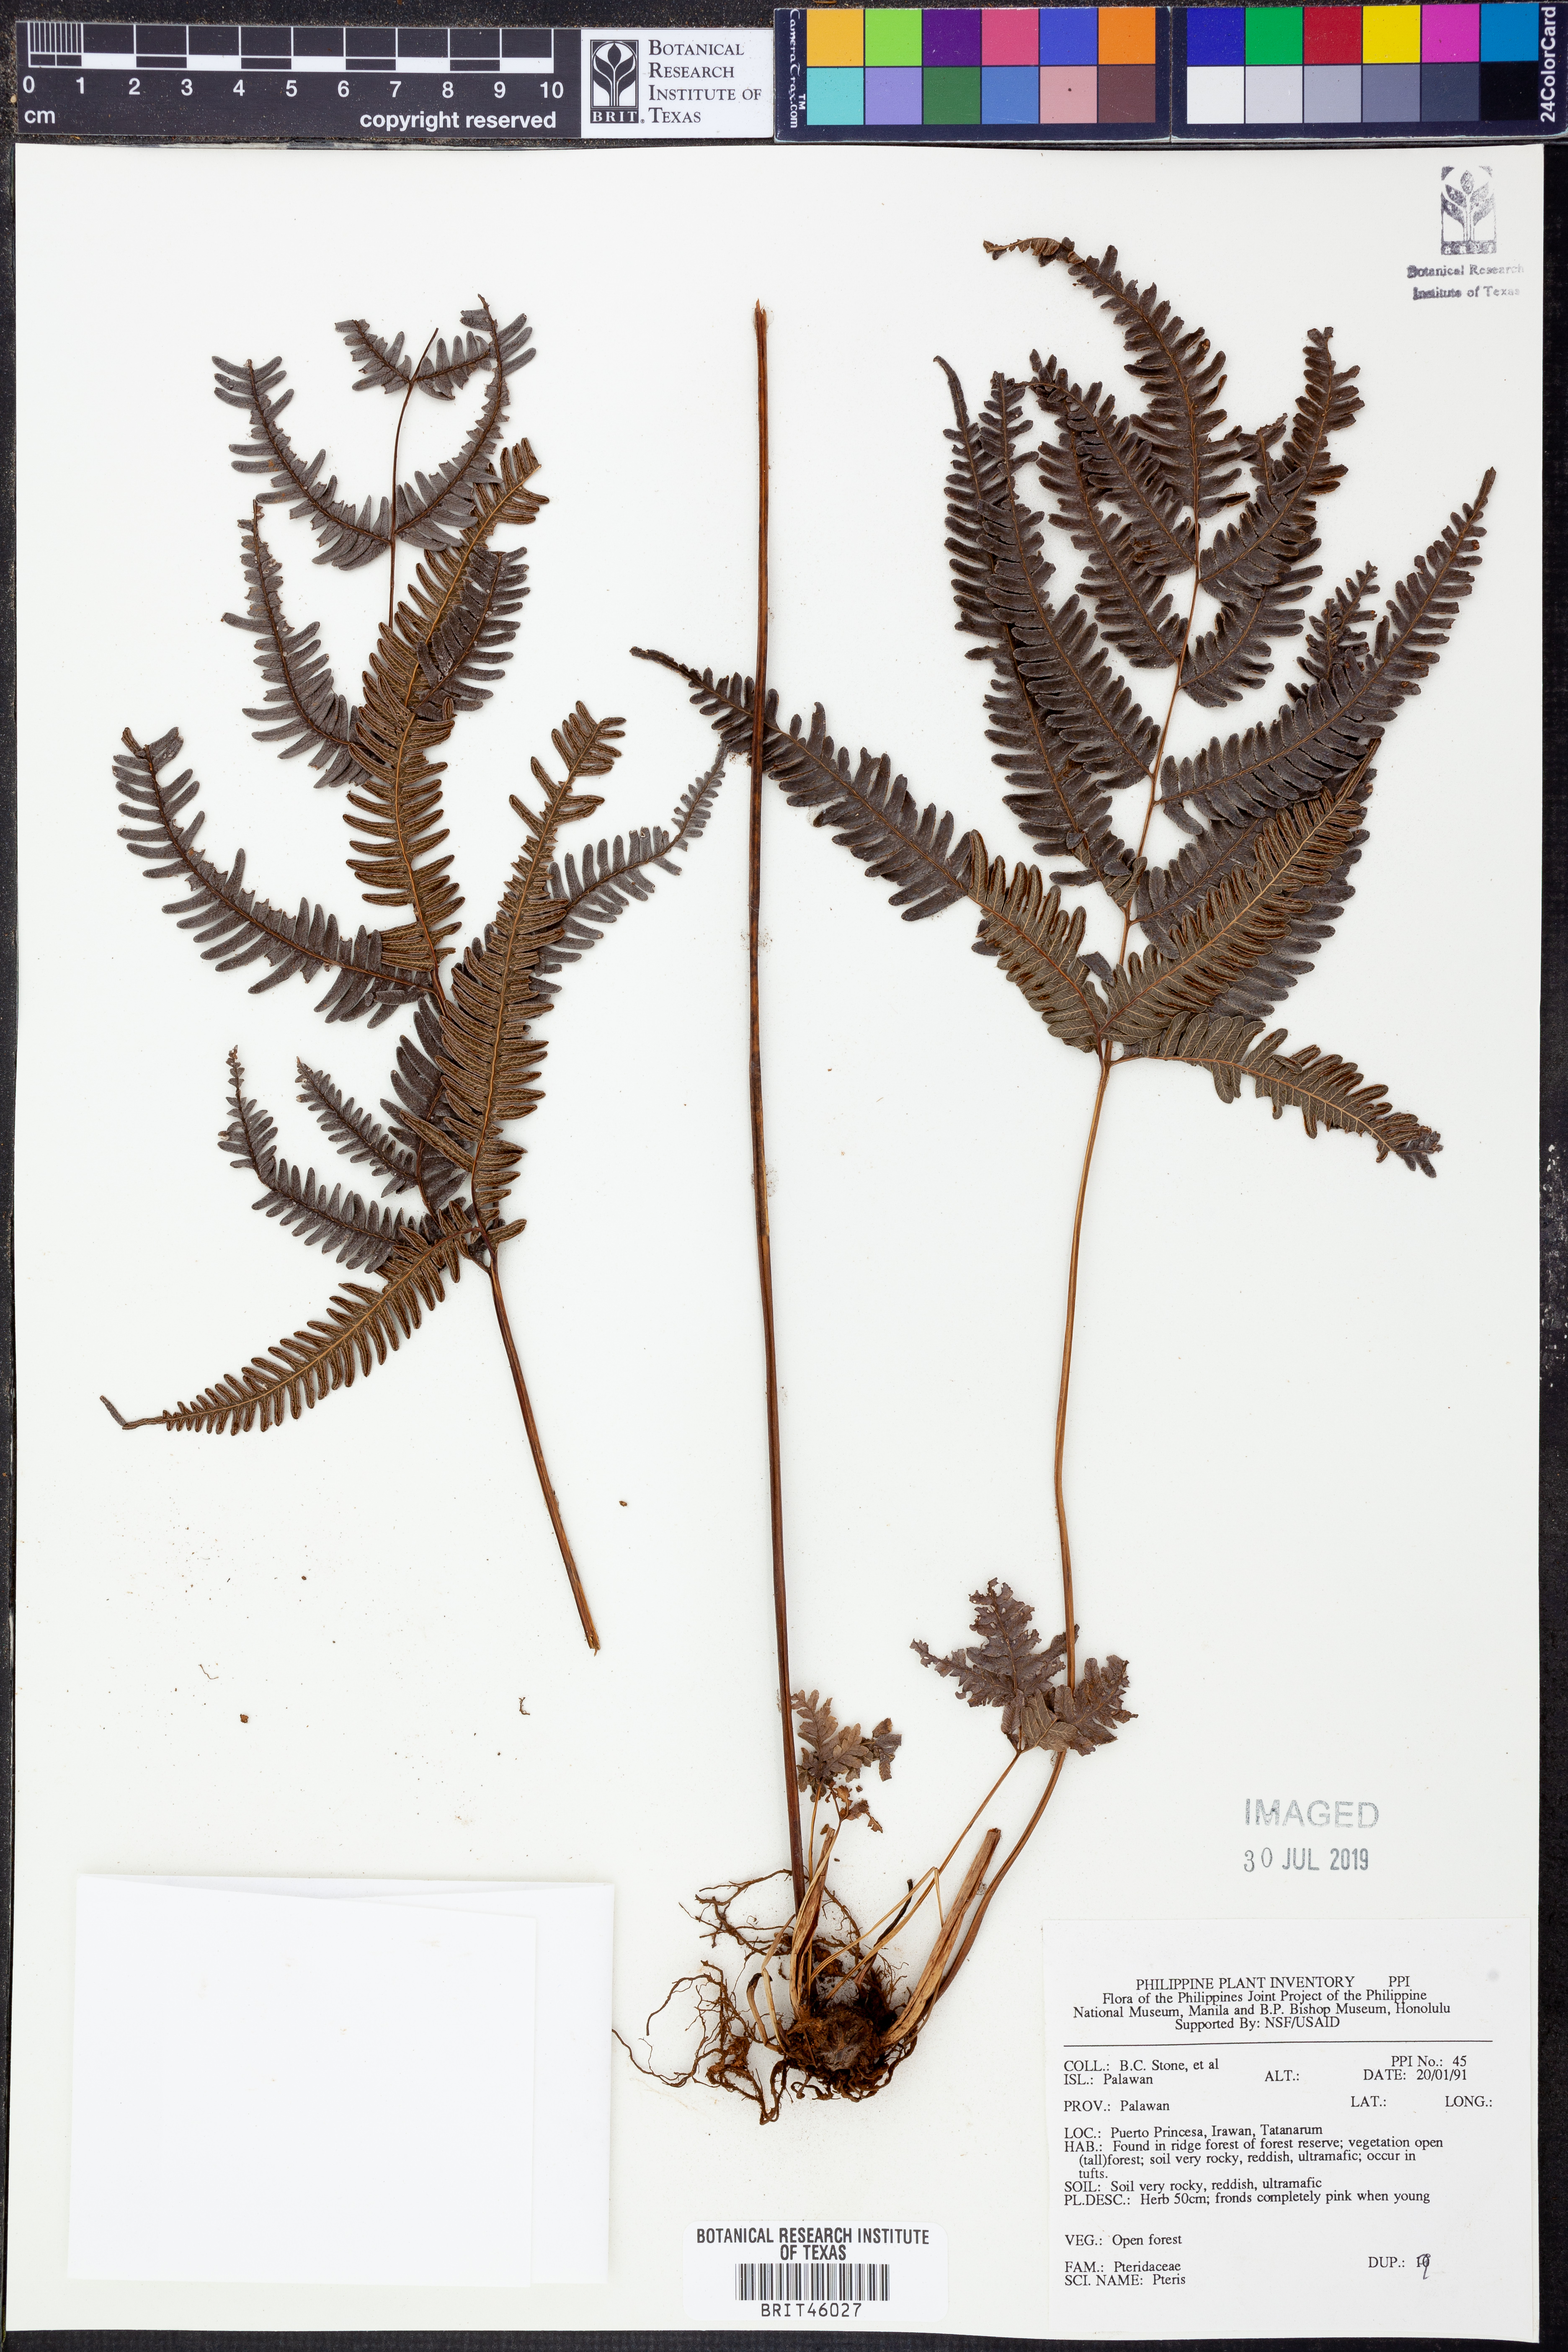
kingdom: Plantae
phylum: Tracheophyta
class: Polypodiopsida
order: Polypodiales
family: Pteridaceae
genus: Pteris
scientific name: Pteris
